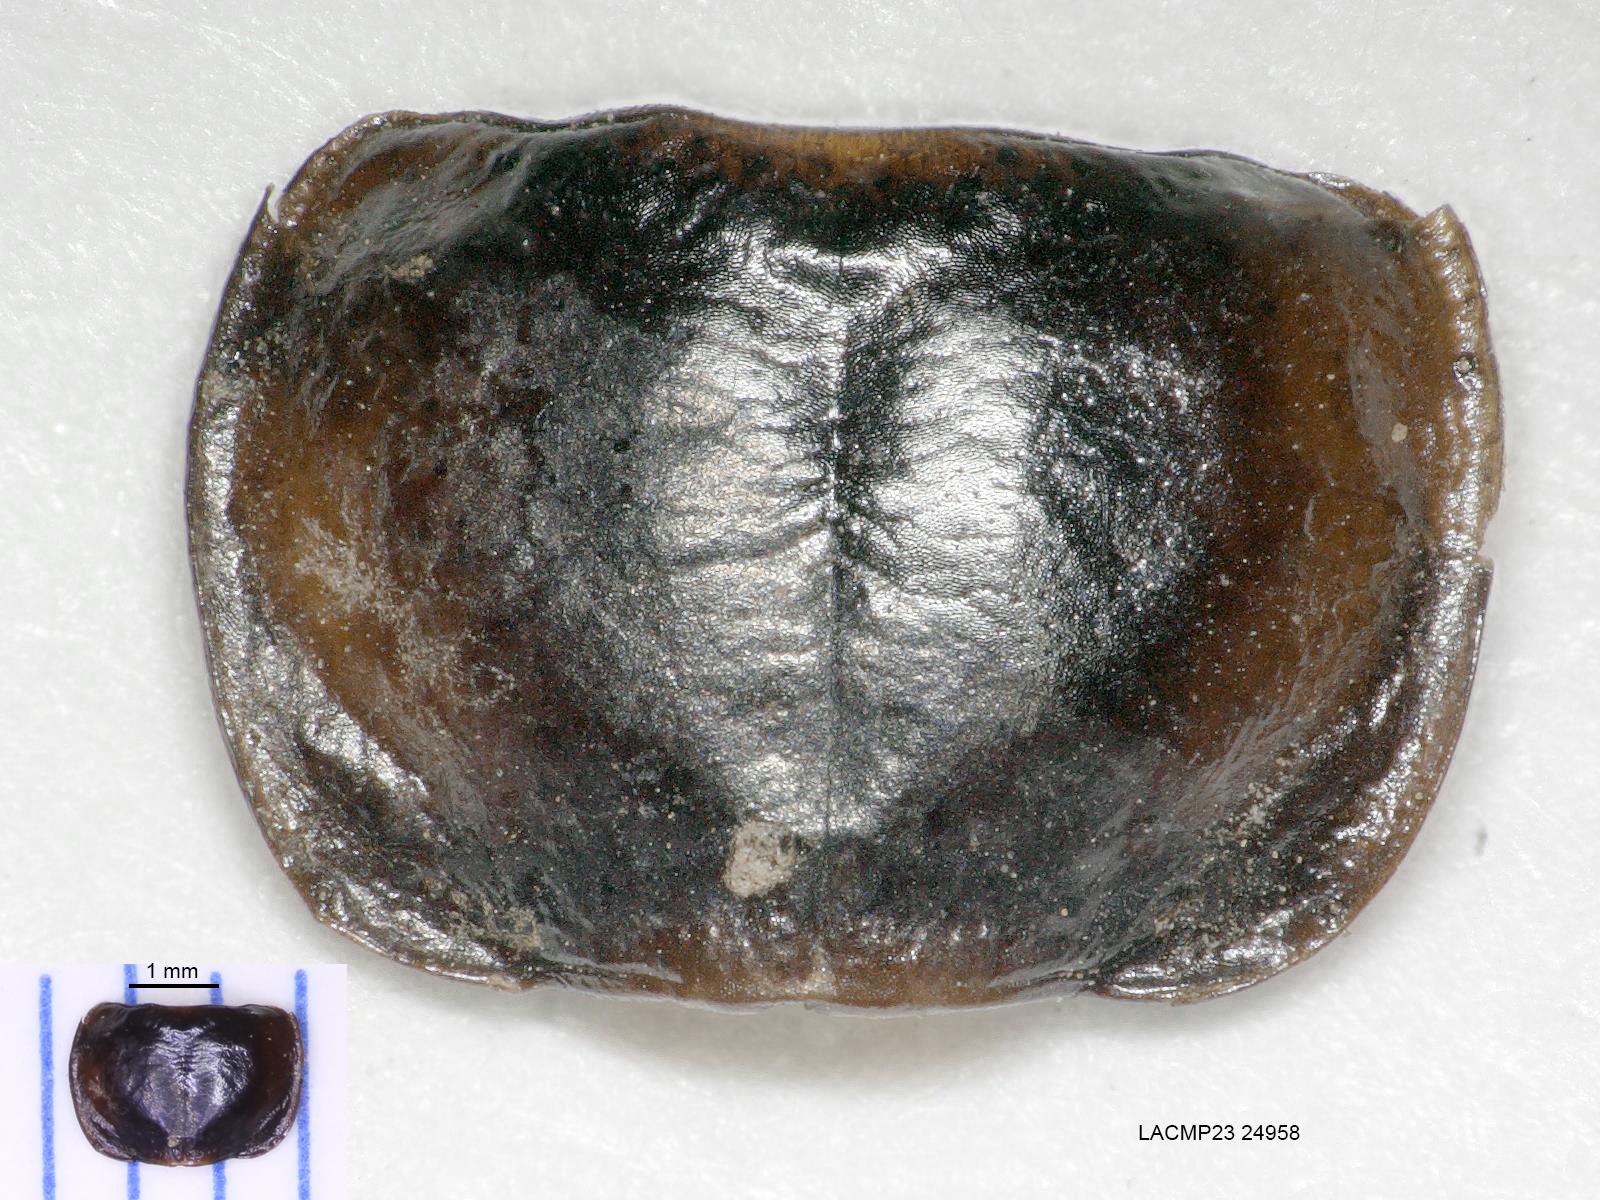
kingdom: Animalia
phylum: Arthropoda
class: Insecta
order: Coleoptera
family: Carabidae
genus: Tanystoma
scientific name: Tanystoma maculicolle
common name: Tule beetle
